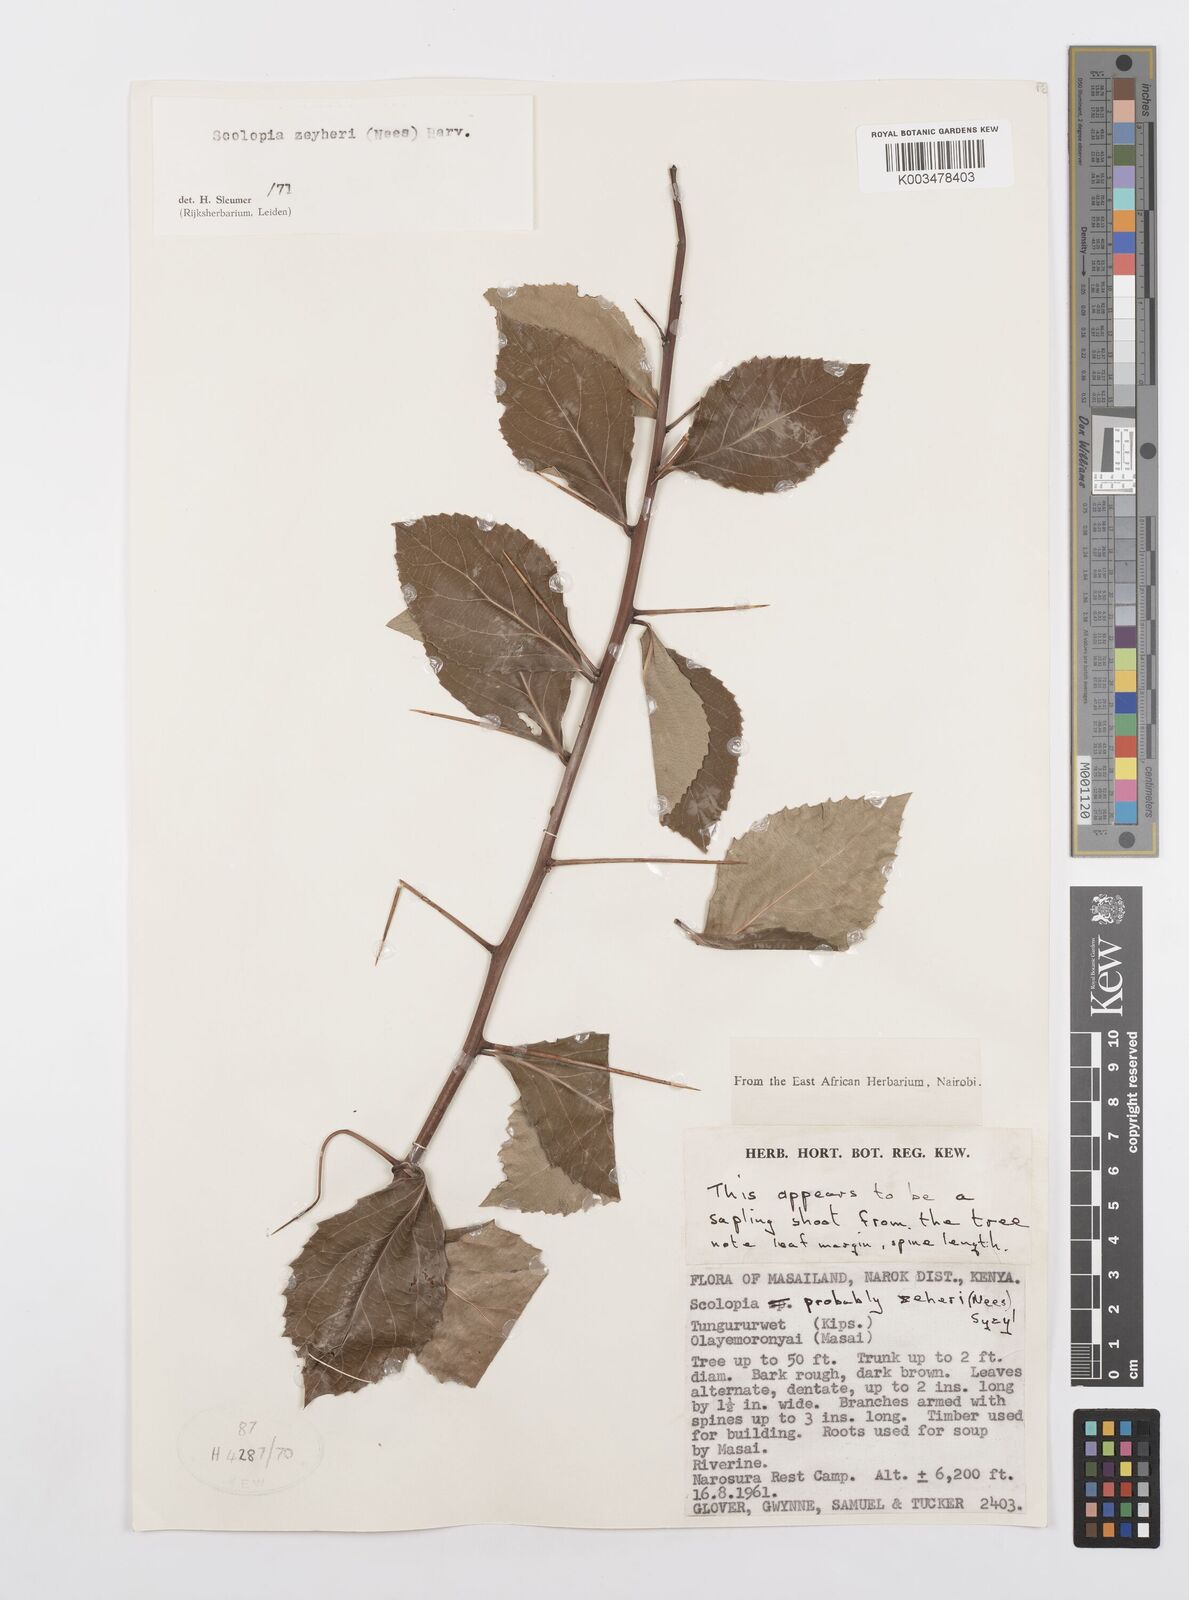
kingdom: Plantae
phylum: Tracheophyta
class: Magnoliopsida
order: Malpighiales
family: Salicaceae
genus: Scolopia
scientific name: Scolopia zeyheri
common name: Thorn pear
